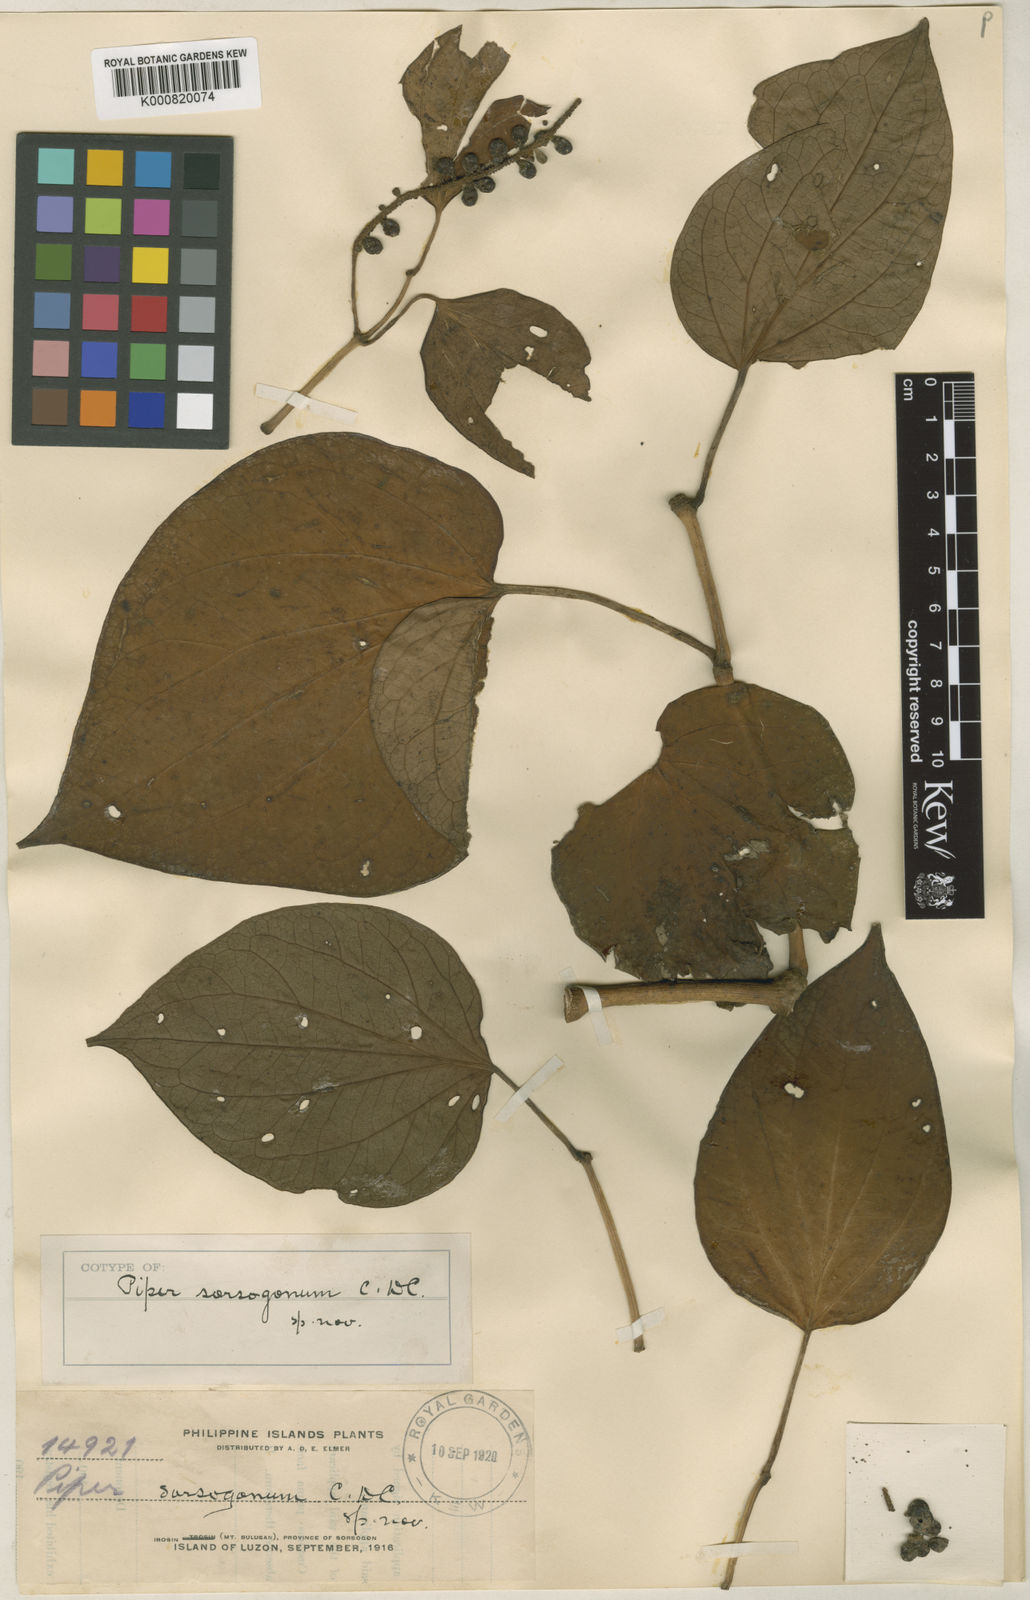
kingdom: Plantae
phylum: Tracheophyta
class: Magnoliopsida
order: Piperales
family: Piperaceae
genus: Piper
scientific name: Piper sorsogonum
